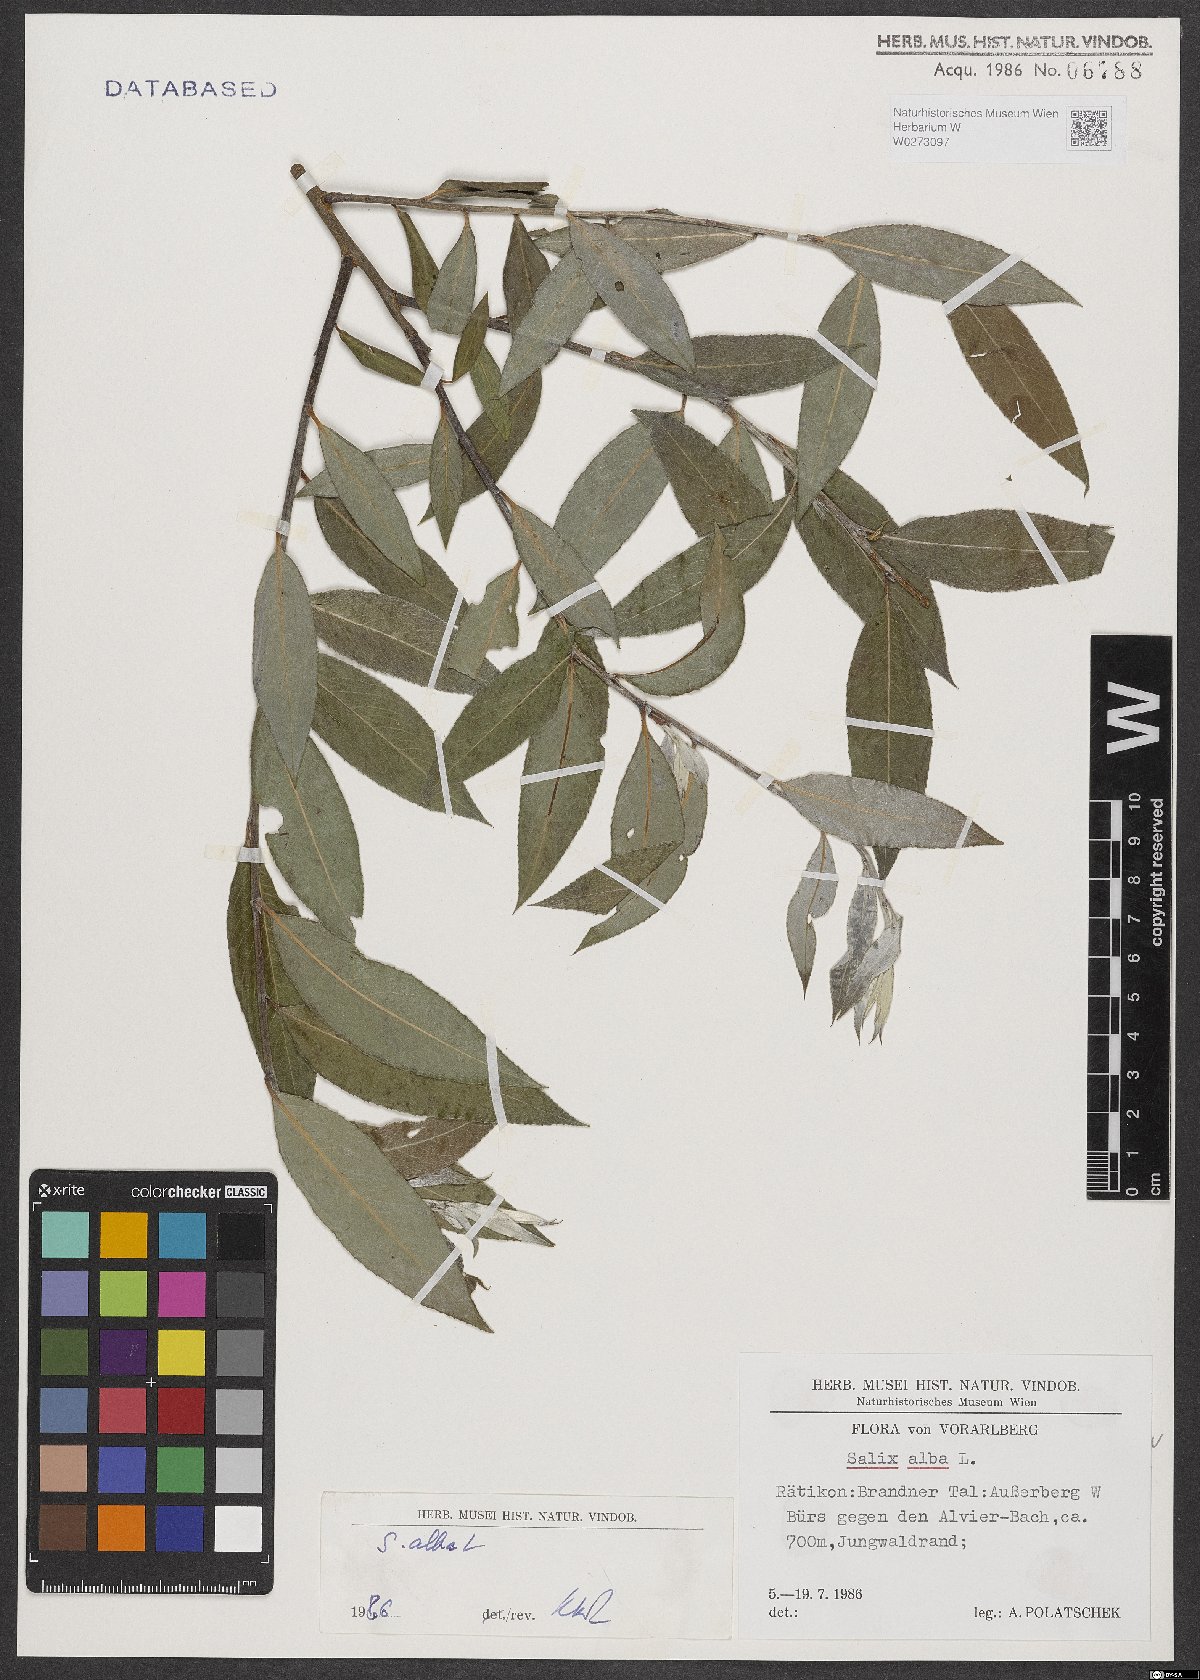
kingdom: Plantae
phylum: Tracheophyta
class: Magnoliopsida
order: Malpighiales
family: Salicaceae
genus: Salix
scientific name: Salix alba
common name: White willow
